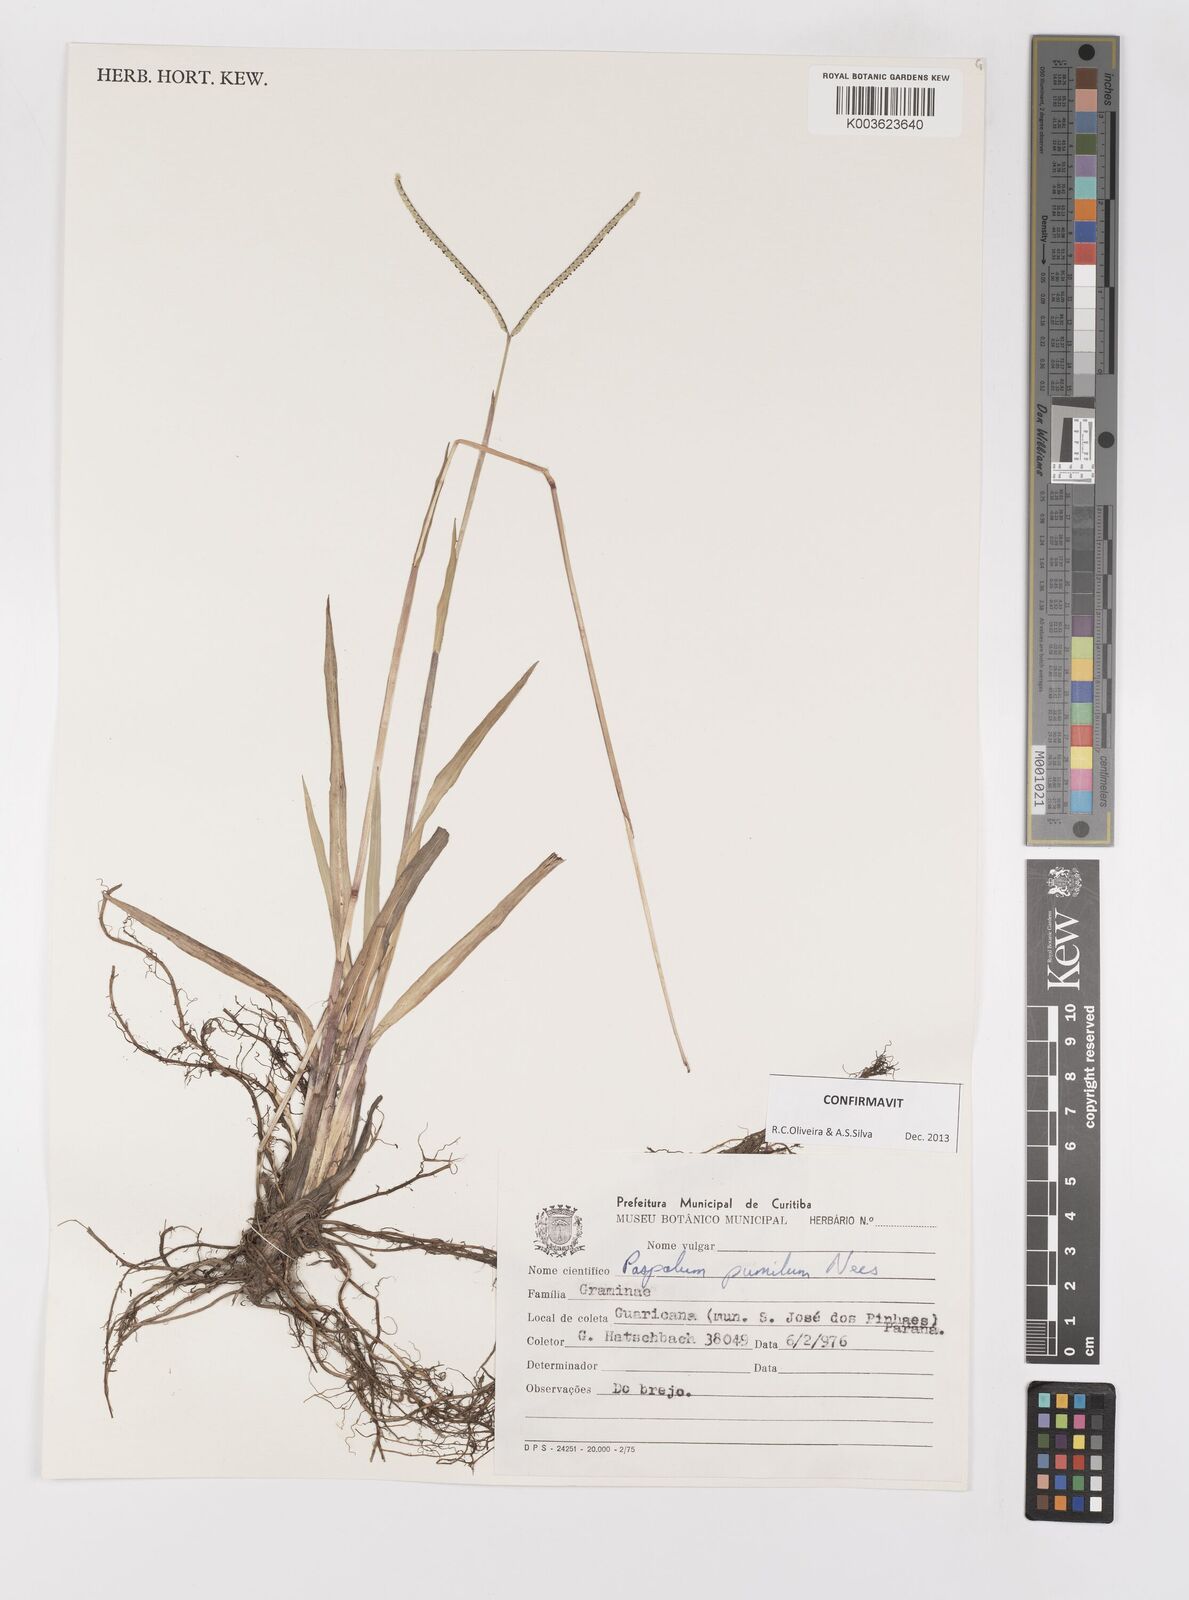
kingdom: Plantae
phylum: Tracheophyta
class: Liliopsida
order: Poales
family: Poaceae
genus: Paspalum
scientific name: Paspalum pumilum
